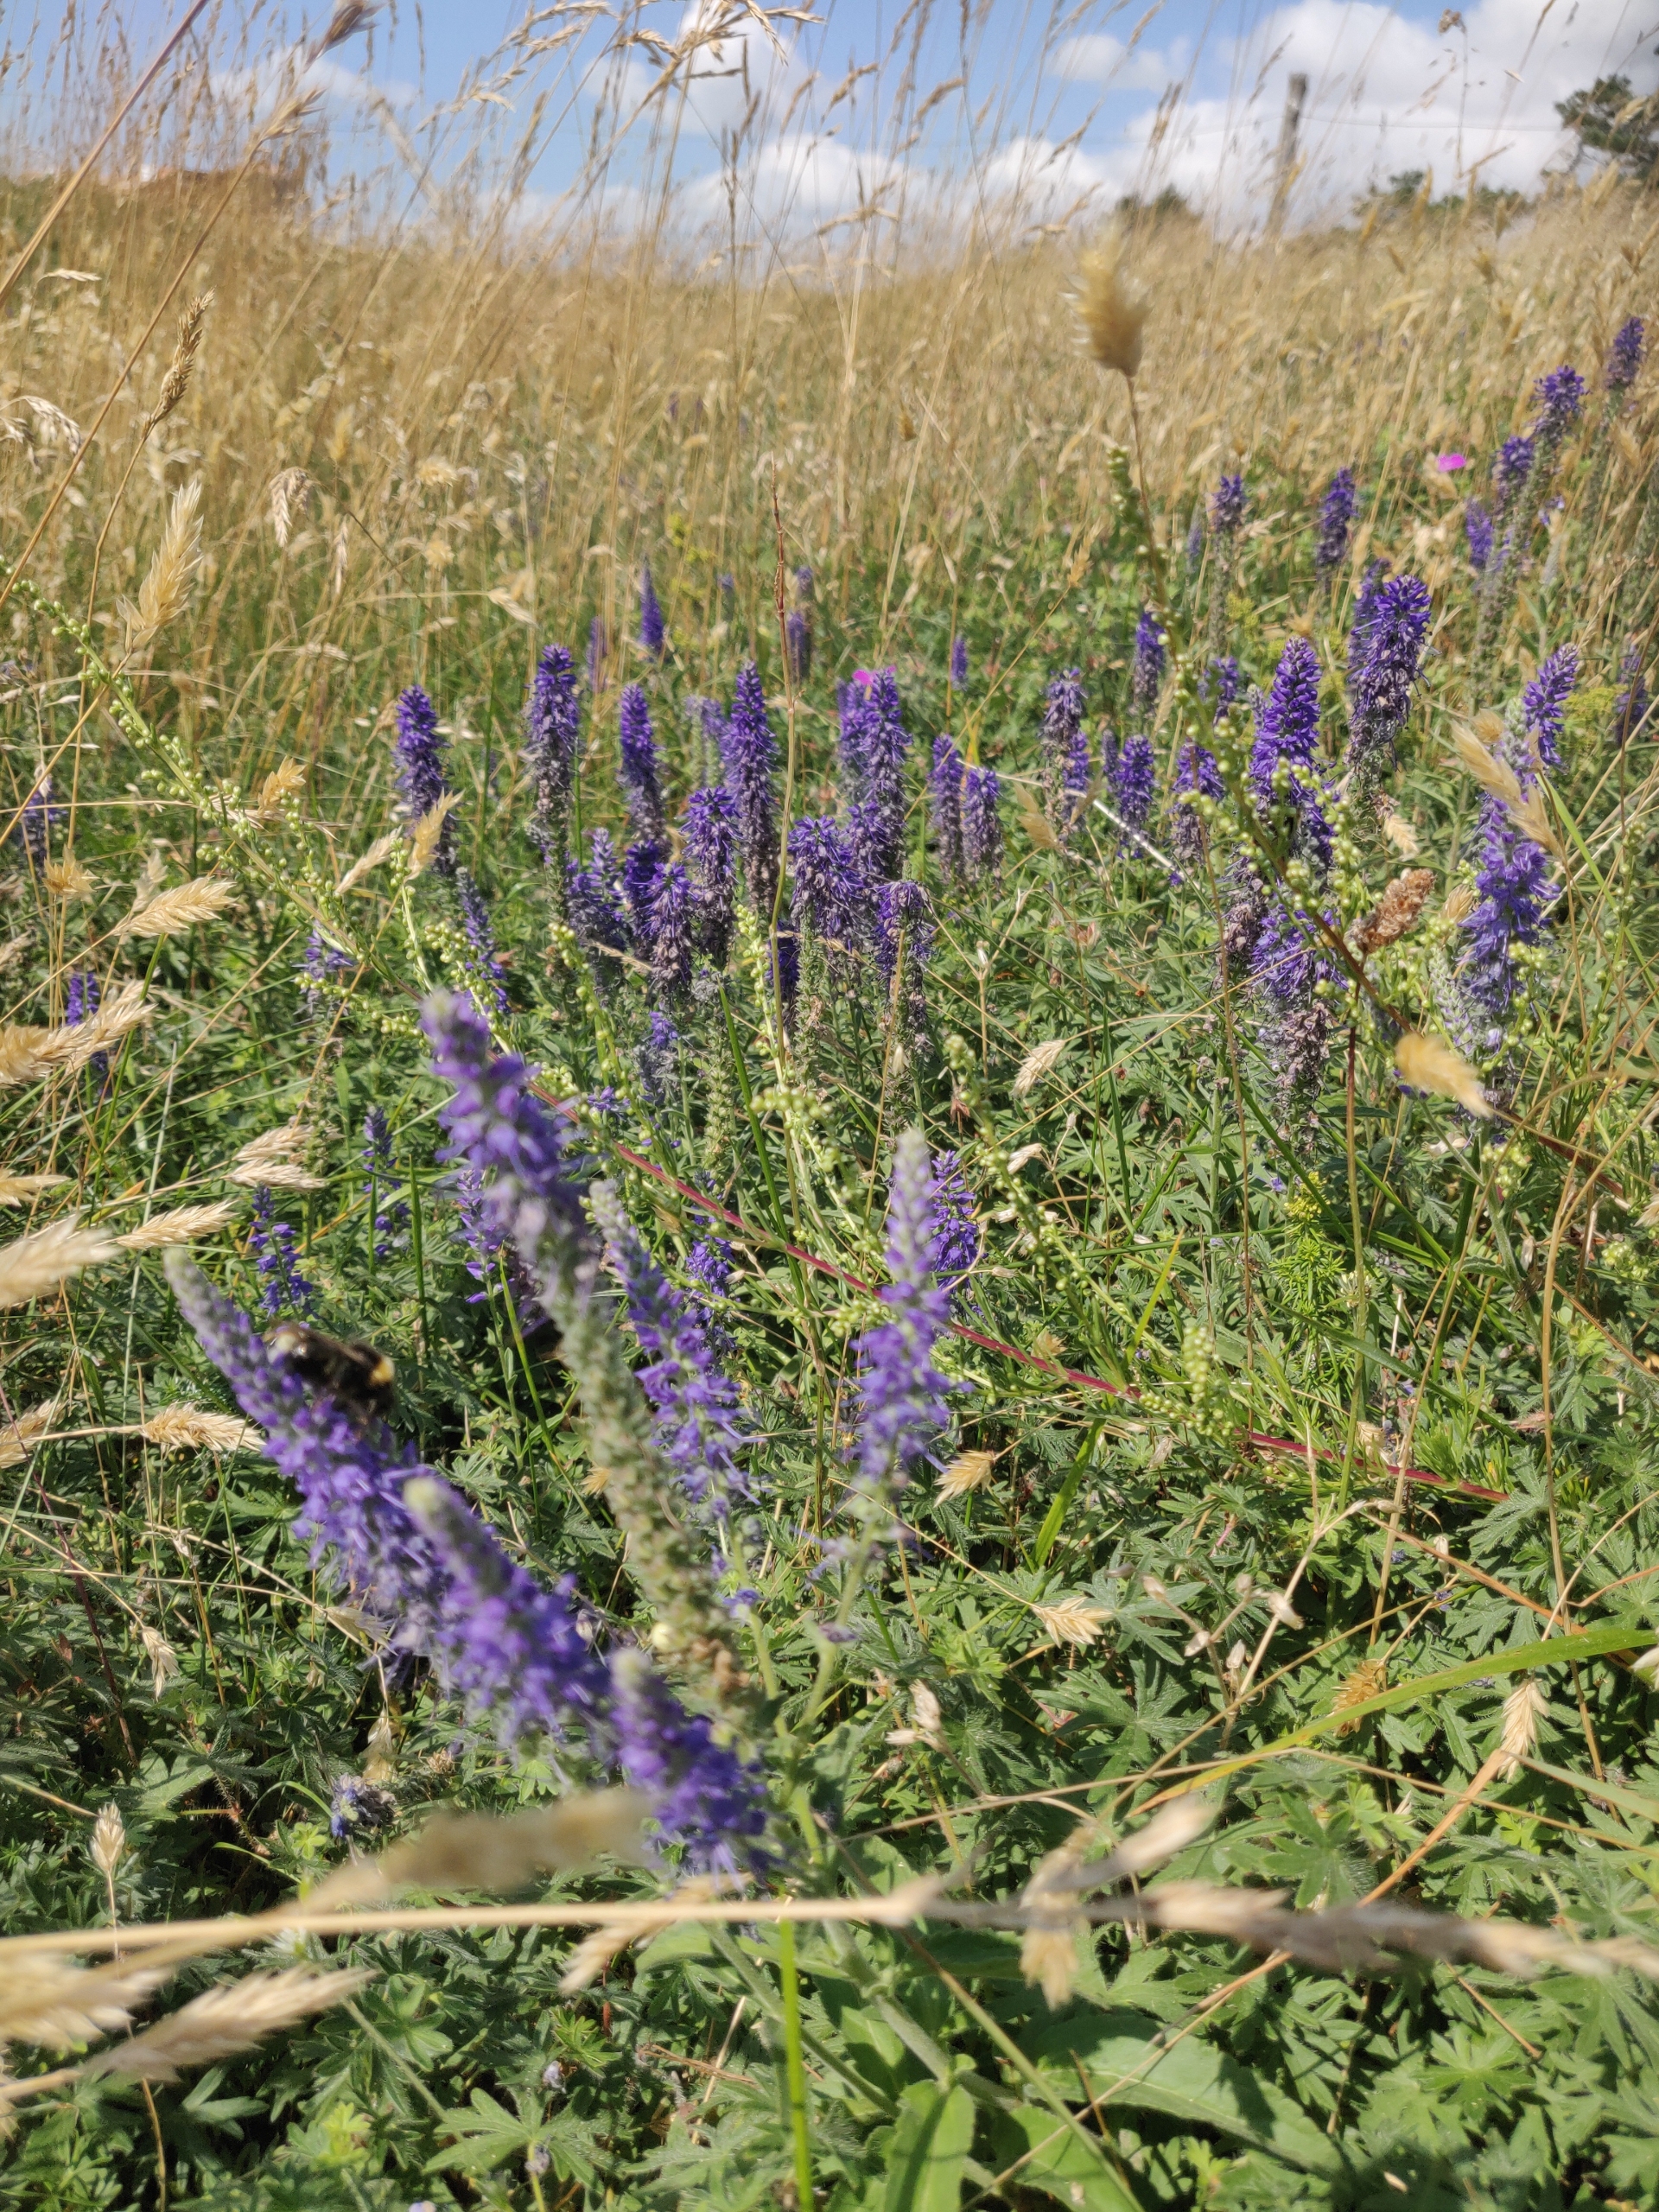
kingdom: Plantae
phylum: Tracheophyta
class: Magnoliopsida
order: Lamiales
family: Plantaginaceae
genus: Veronica
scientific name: Veronica spicata
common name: Aks-ærenpris
